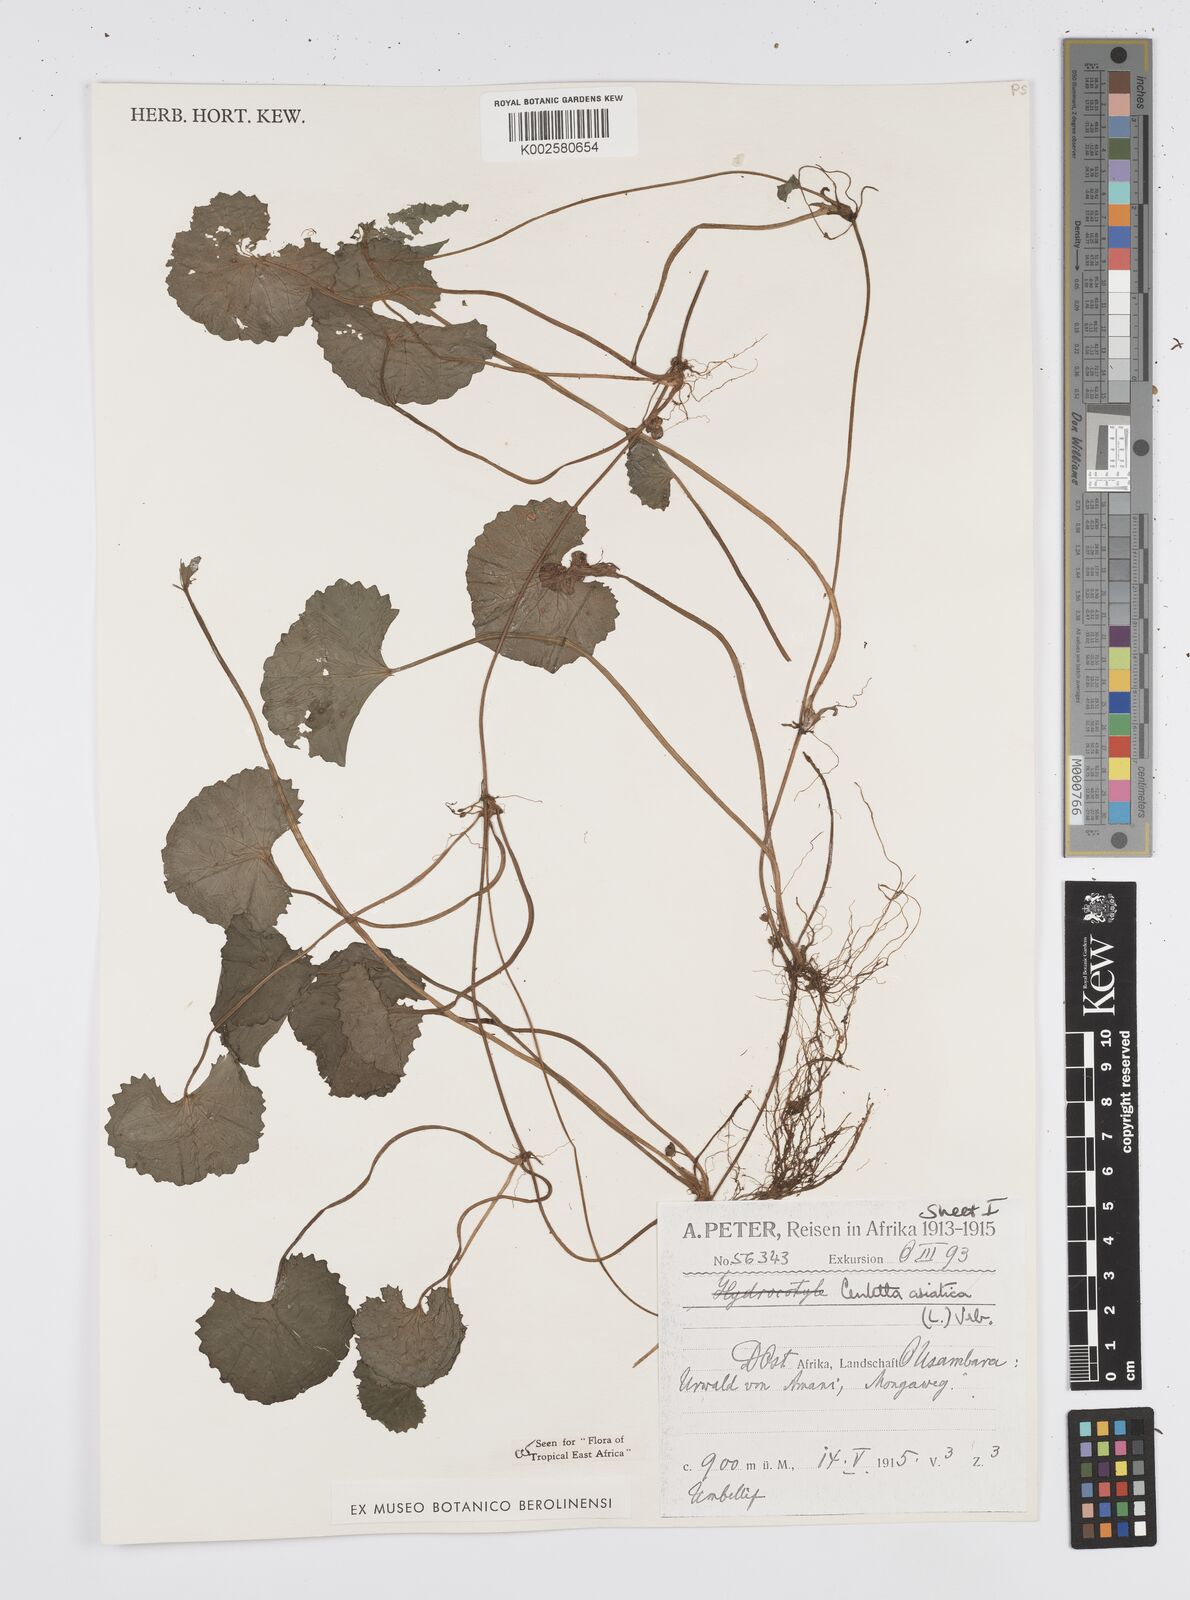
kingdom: Plantae
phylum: Tracheophyta
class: Magnoliopsida
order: Apiales
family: Apiaceae
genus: Centella
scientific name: Centella asiatica
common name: Spadeleaf
